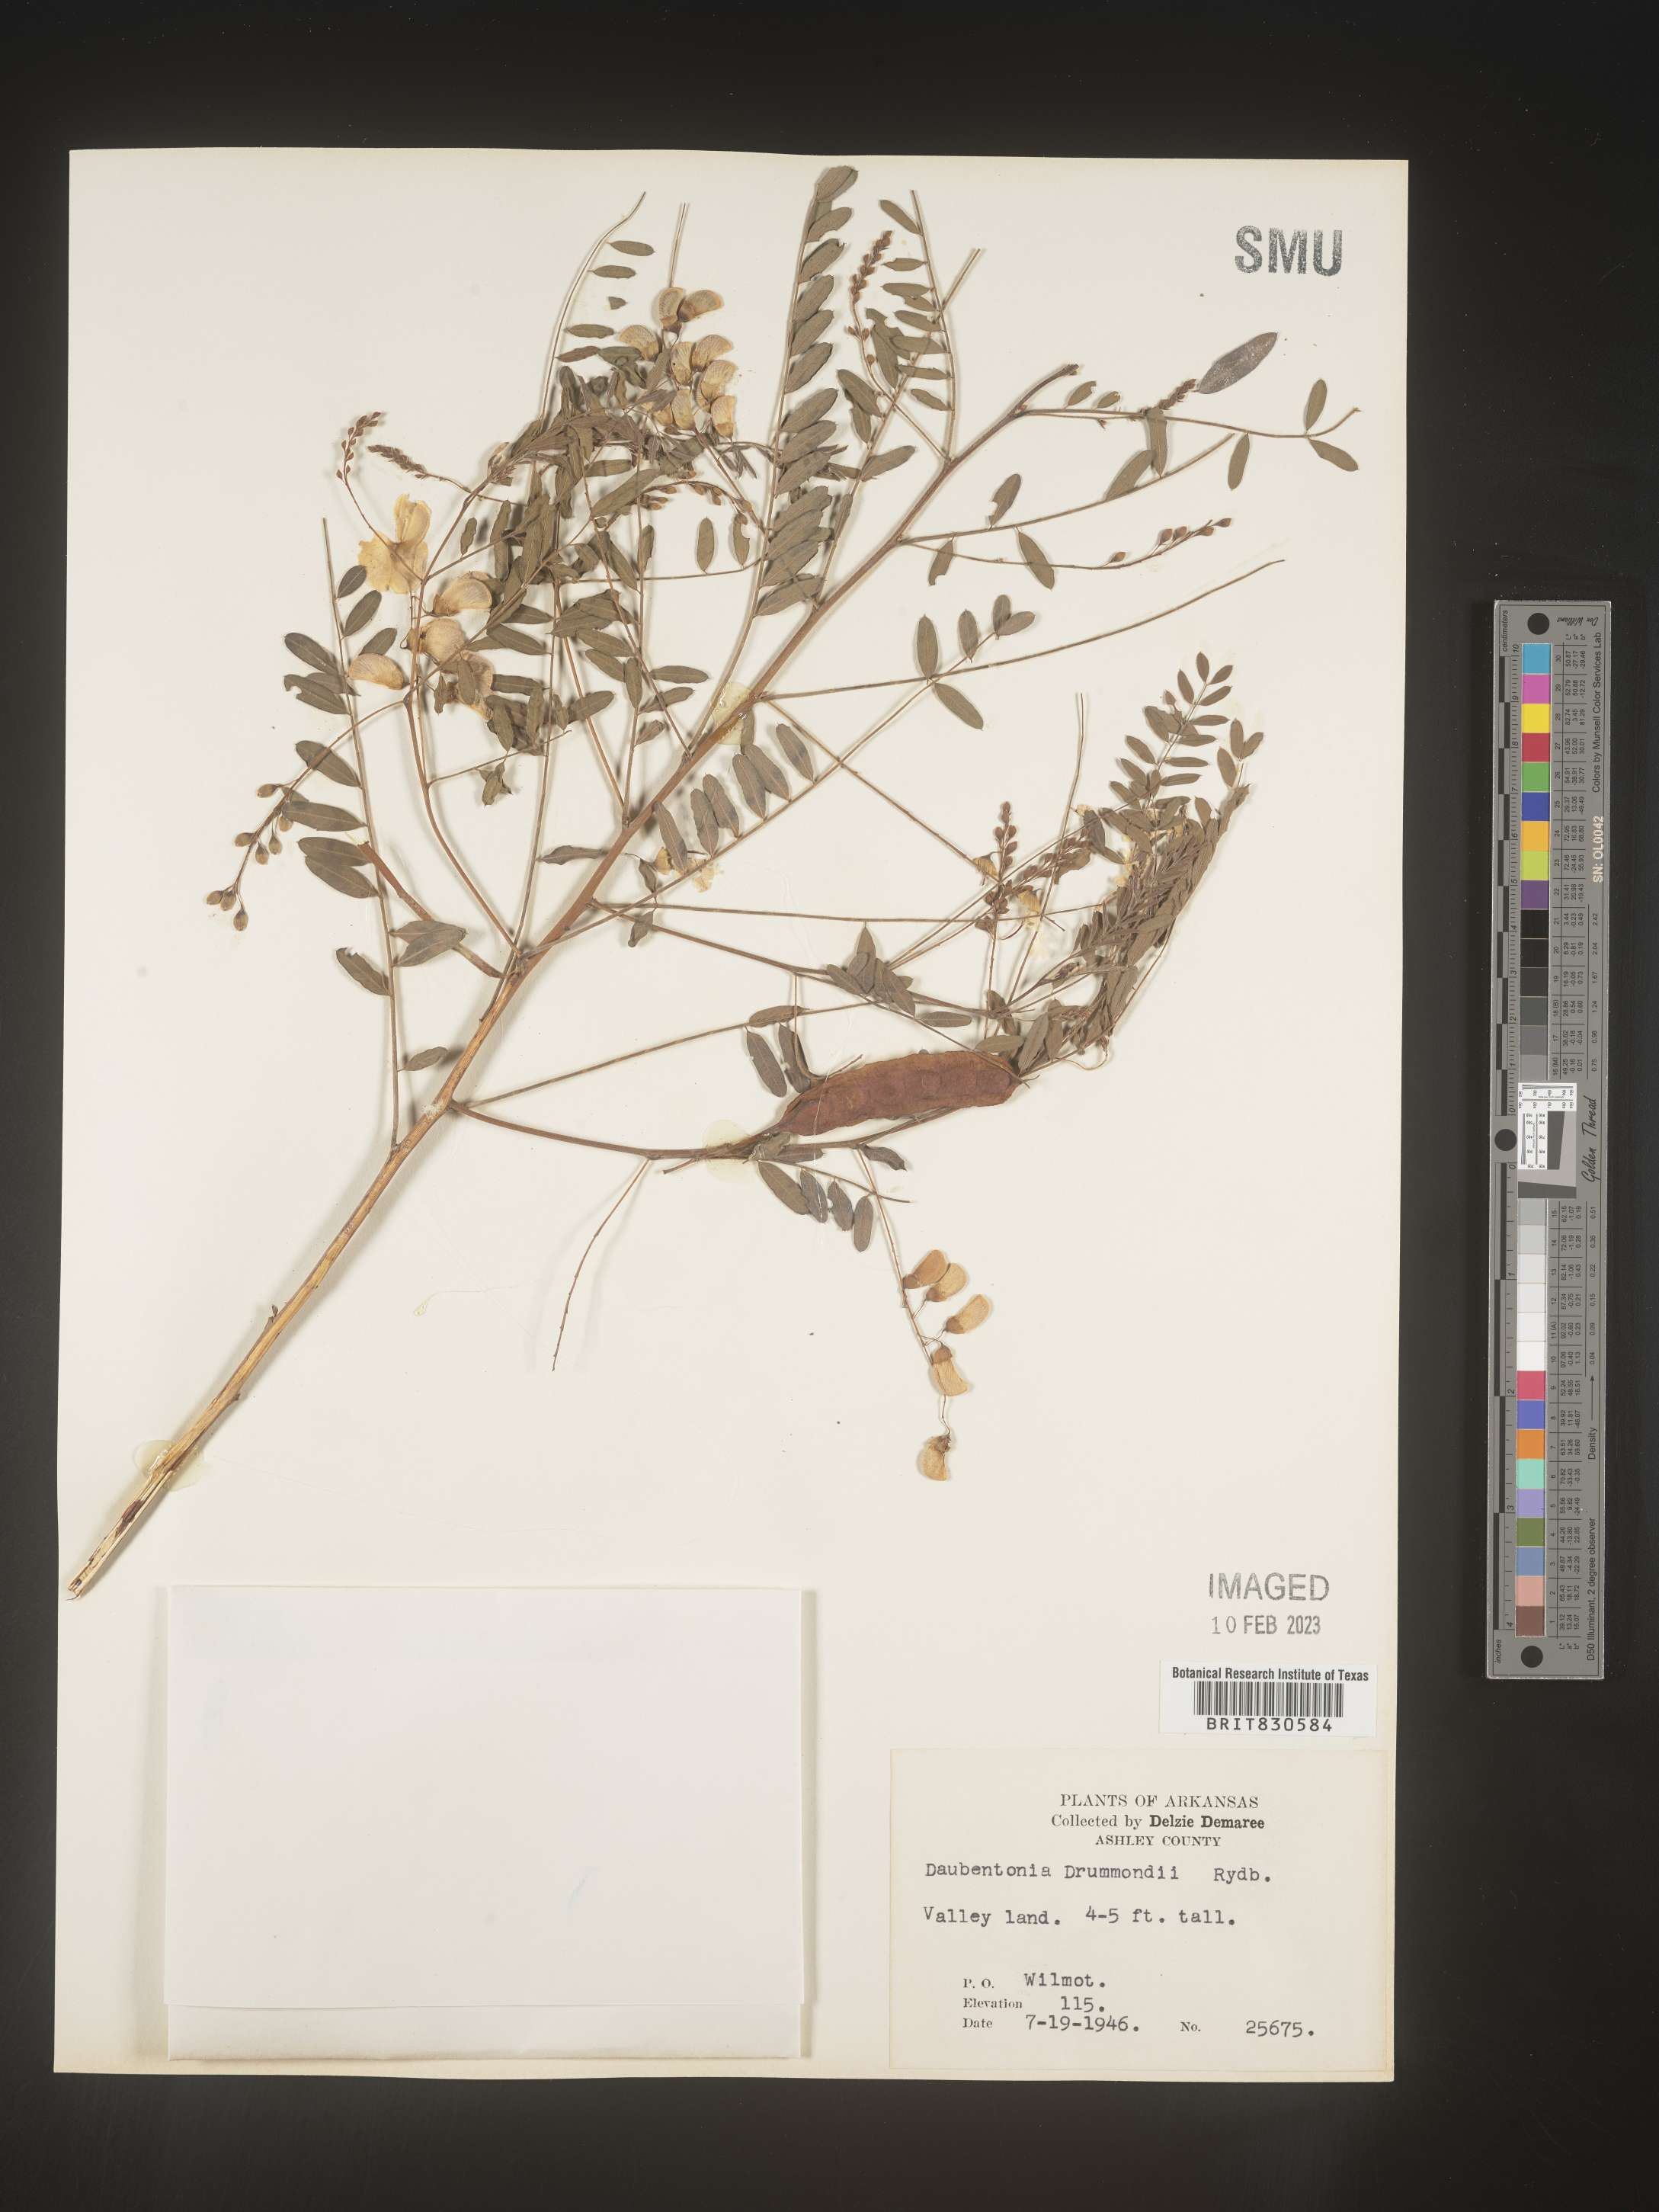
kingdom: Plantae
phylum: Tracheophyta
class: Magnoliopsida
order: Fabales
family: Fabaceae
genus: Sesbania
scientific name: Sesbania drummondii
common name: Poison-bean
